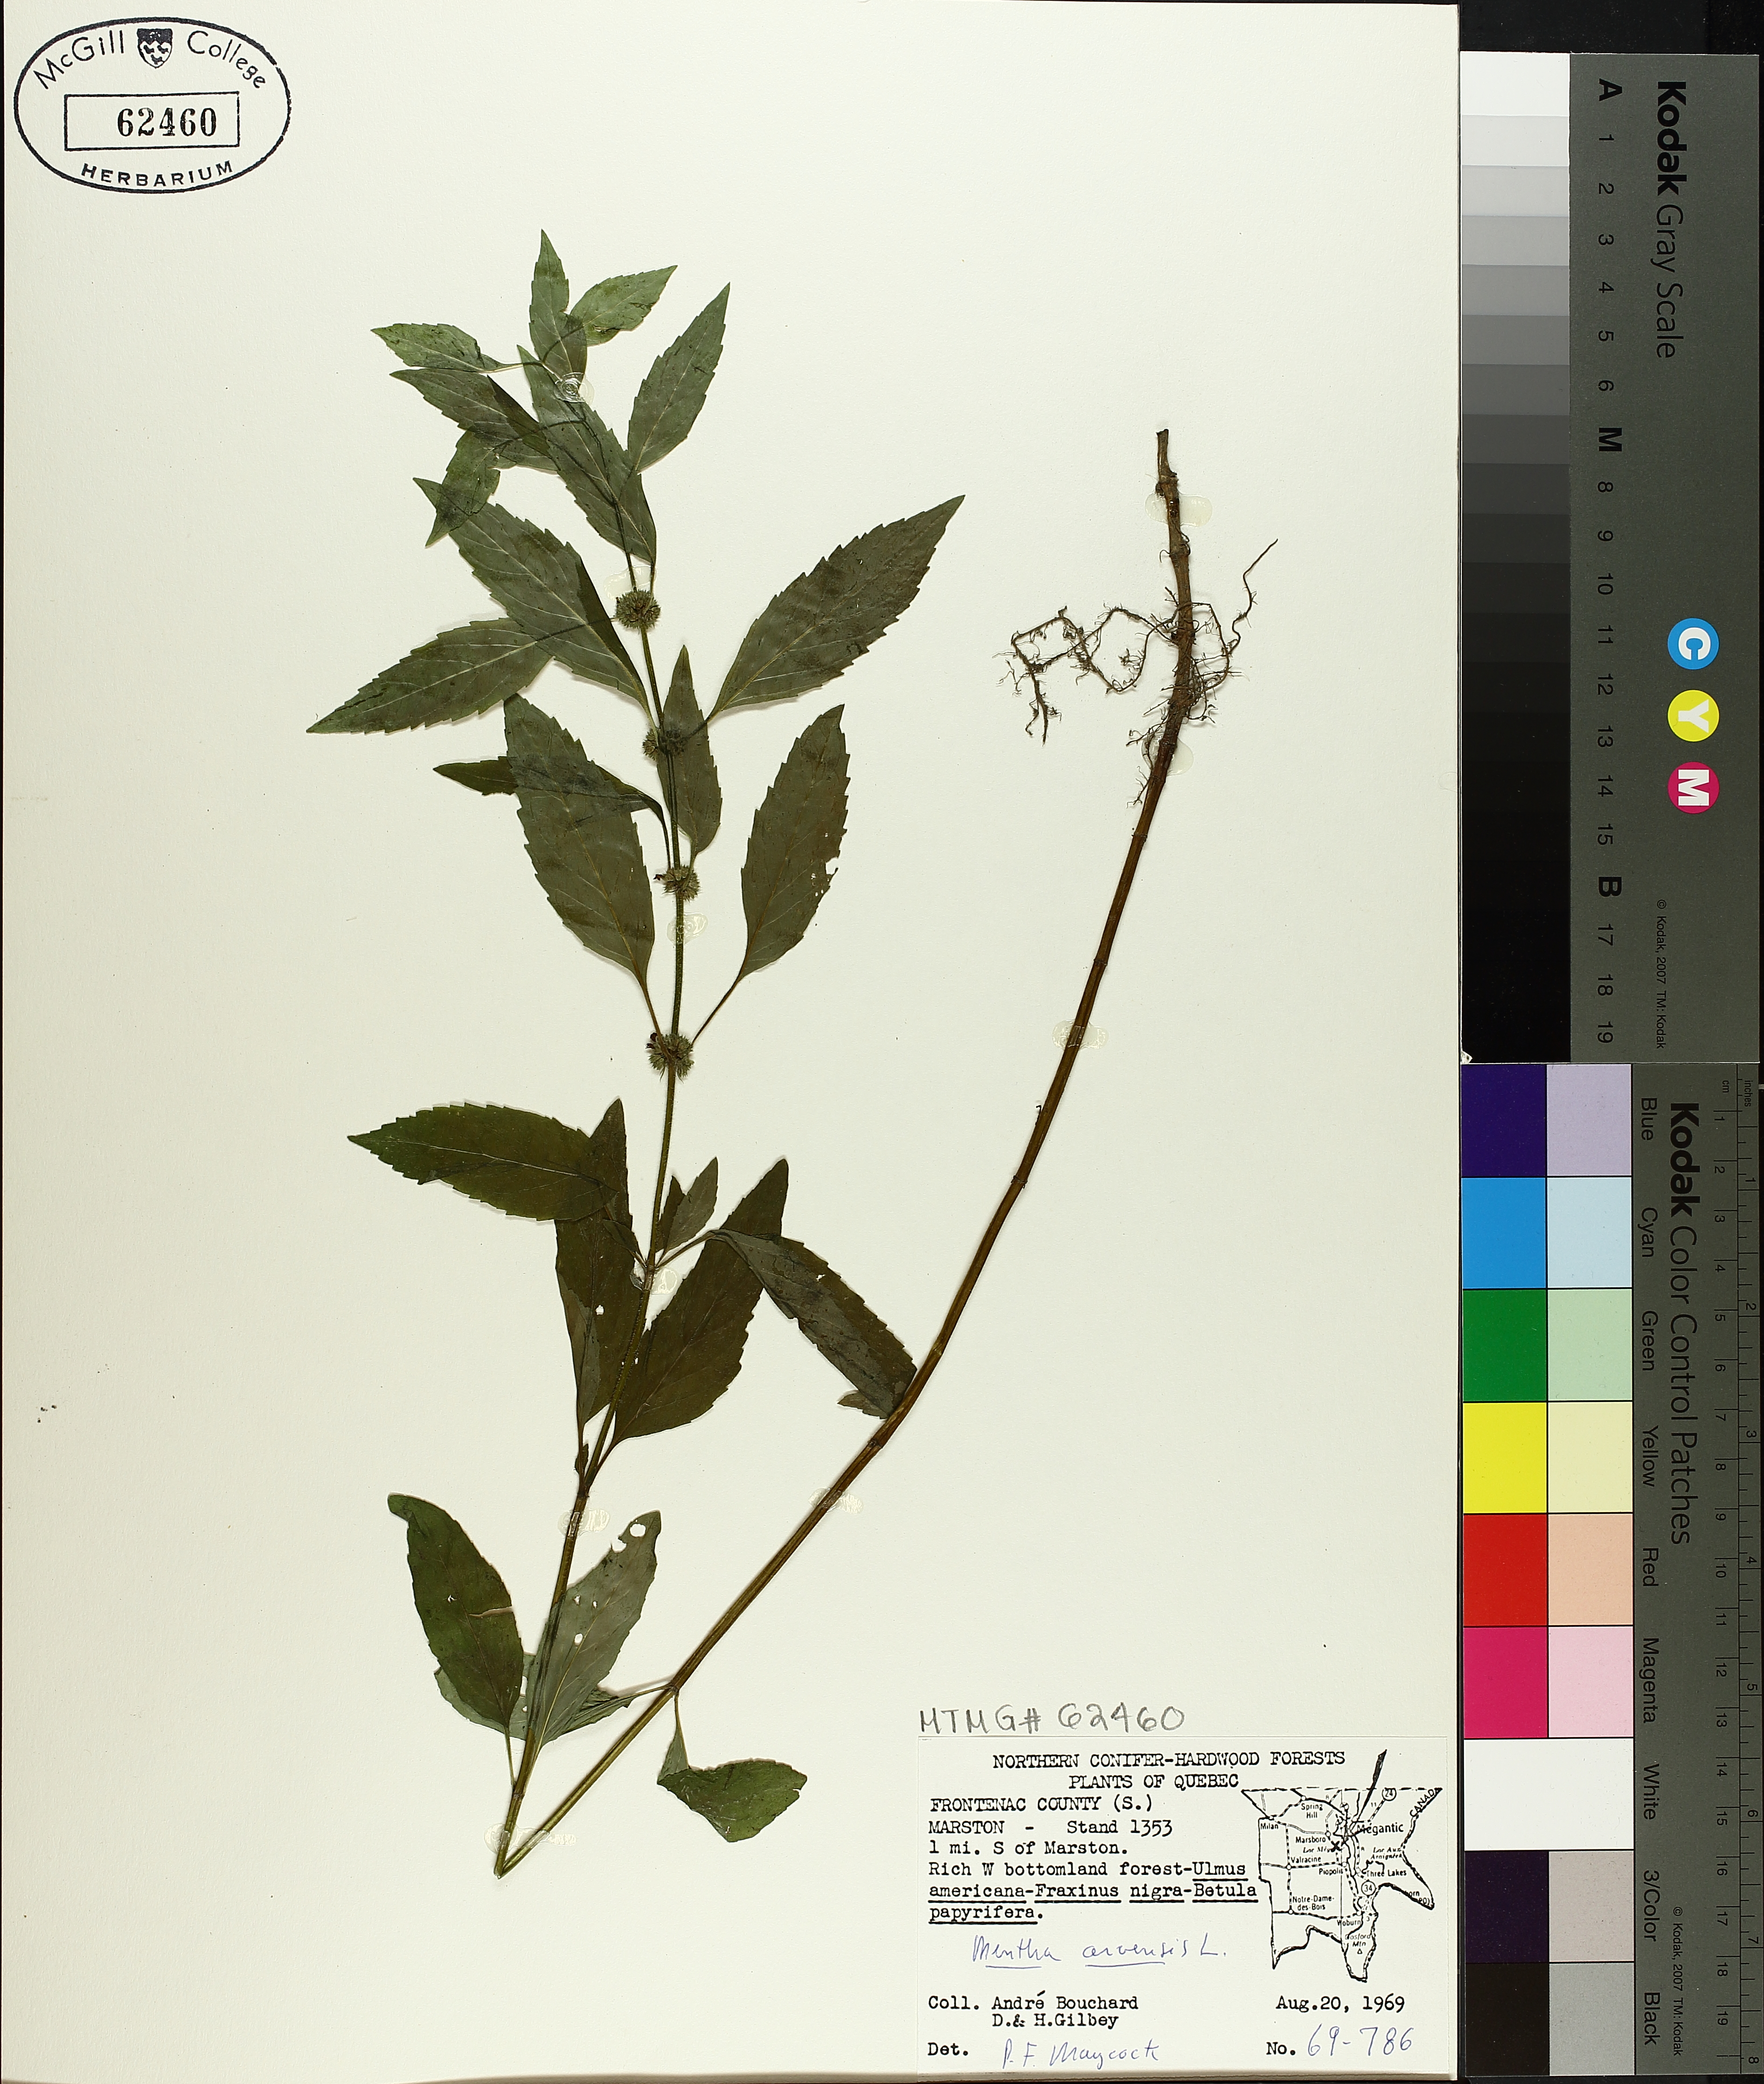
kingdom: Plantae
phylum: Tracheophyta
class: Magnoliopsida
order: Lamiales
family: Lamiaceae
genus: Mentha
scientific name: Mentha arvensis
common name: Corn mint
